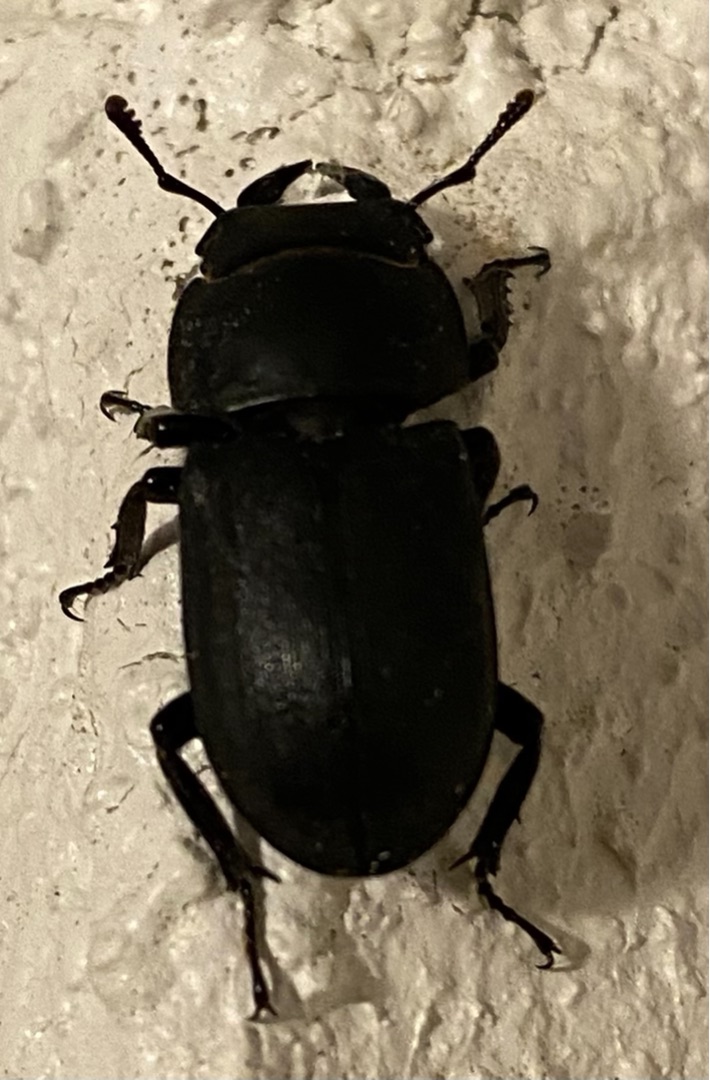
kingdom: Animalia
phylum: Arthropoda
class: Insecta
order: Coleoptera
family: Lucanidae
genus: Dorcus
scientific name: Dorcus parallelipipedus
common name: Bøghjort
